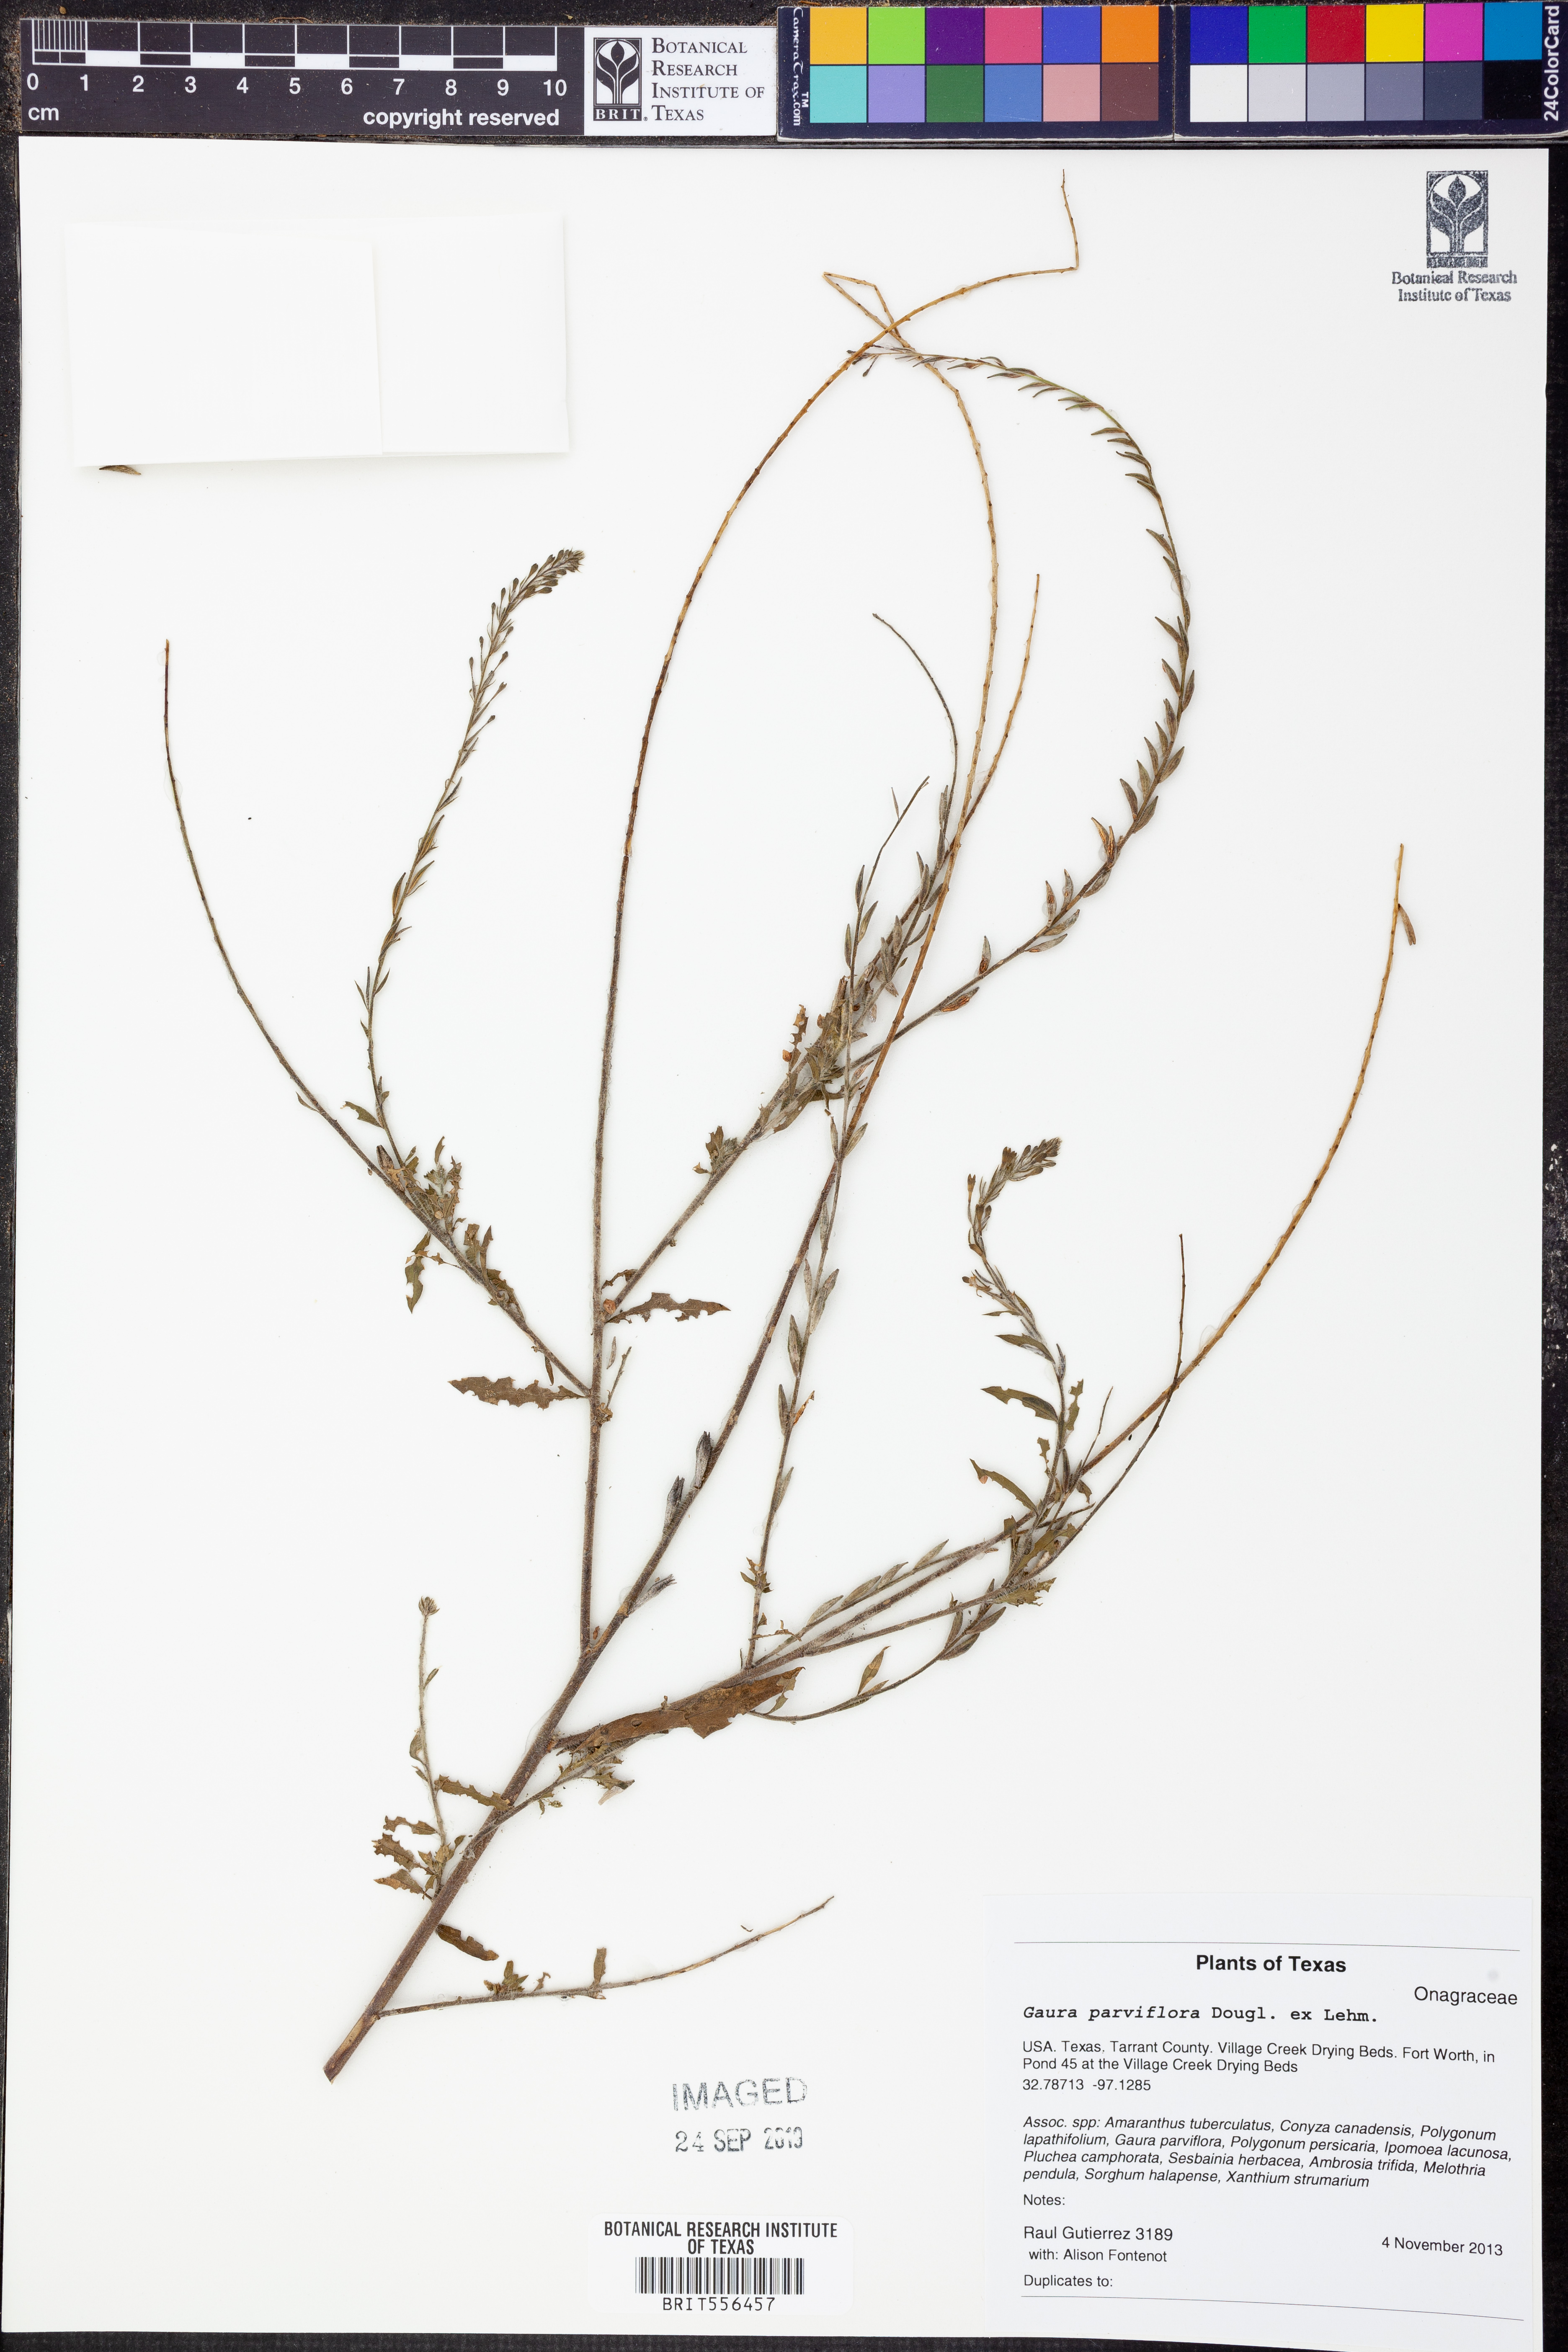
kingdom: Plantae
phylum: Tracheophyta
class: Magnoliopsida
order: Myrtales
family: Onagraceae
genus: Oenothera
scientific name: Oenothera curtiflora
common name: Velvetweed
